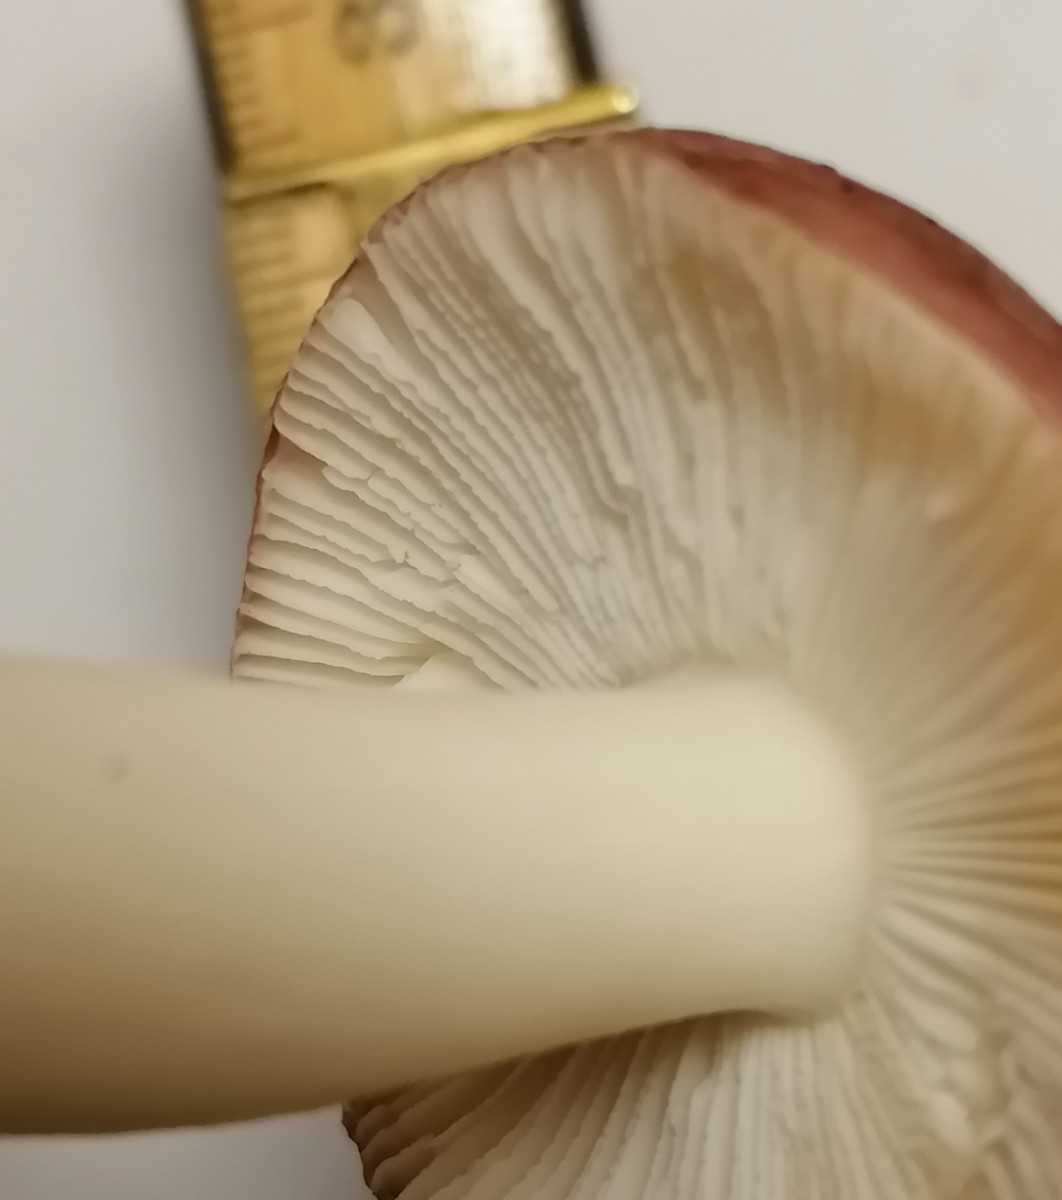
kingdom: Fungi
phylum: Basidiomycota
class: Agaricomycetes
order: Russulales
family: Russulaceae
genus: Russula
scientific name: Russula fragilis
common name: Fragile brittlegill
